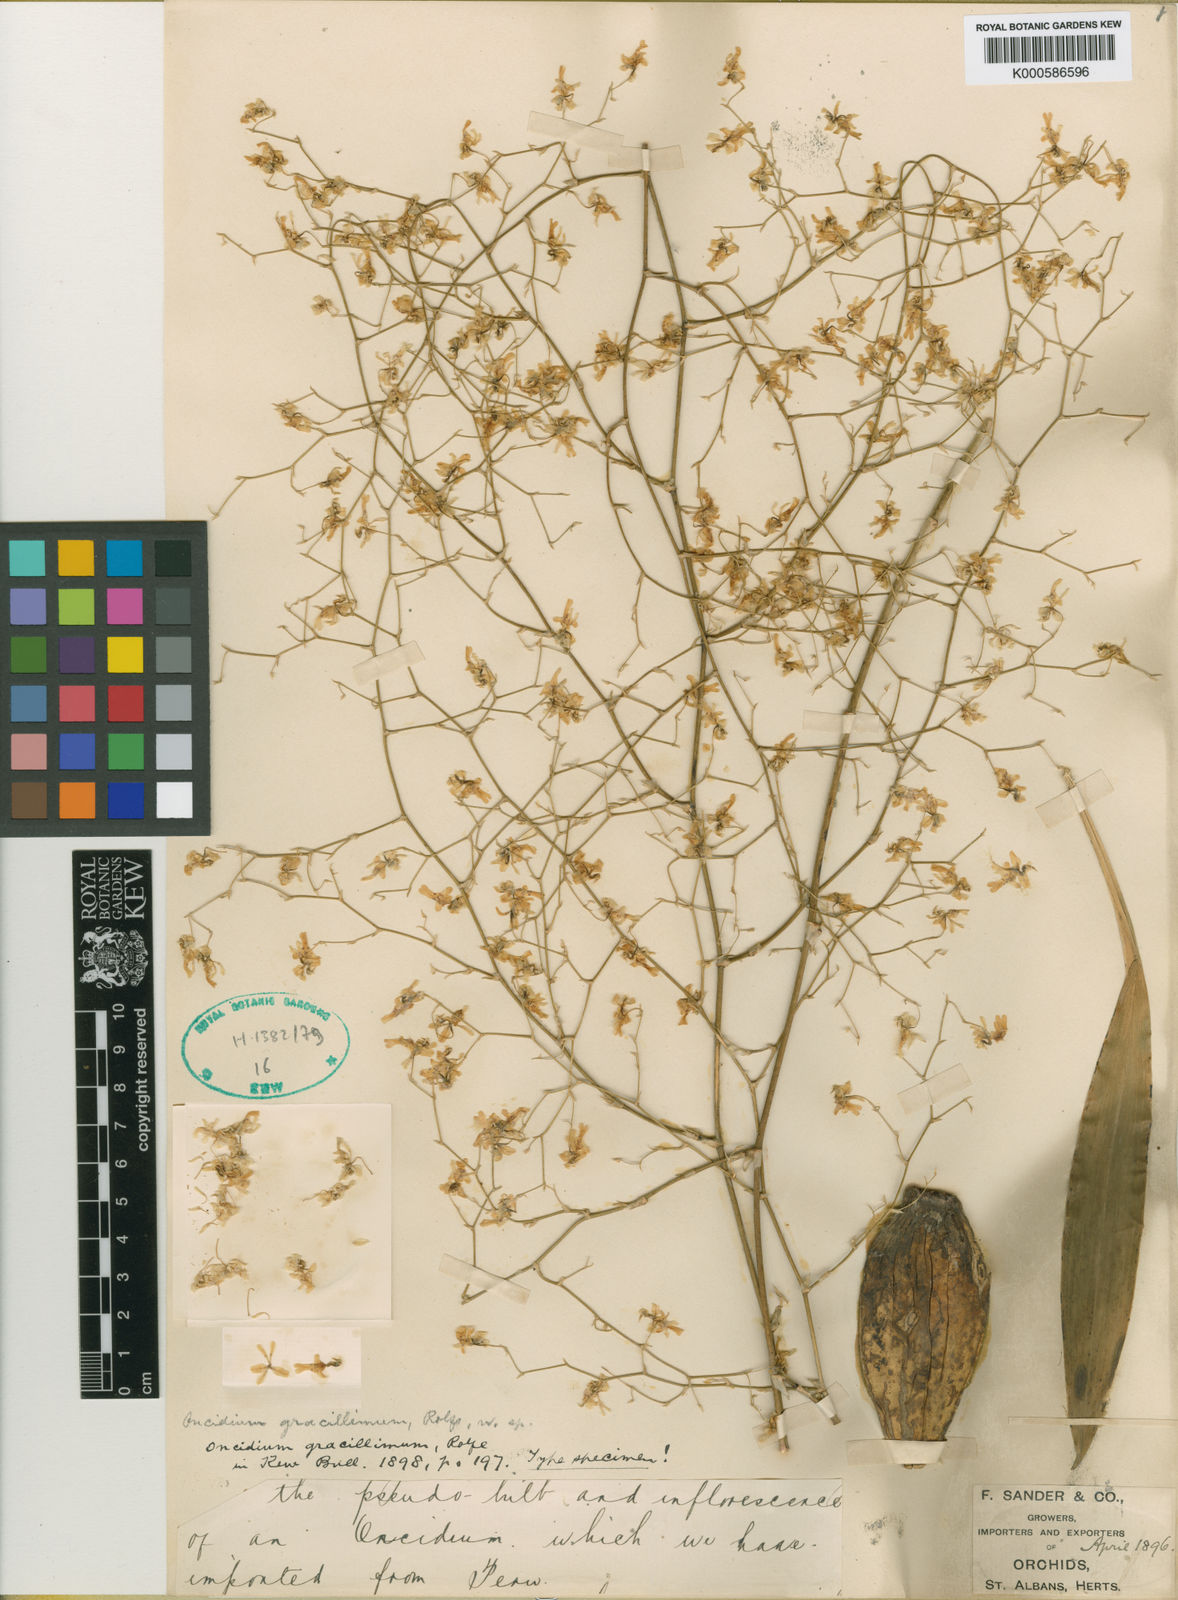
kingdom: Plantae
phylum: Tracheophyta
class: Liliopsida
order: Asparagales
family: Orchidaceae
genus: Oncidium
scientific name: Oncidium lancifolium
